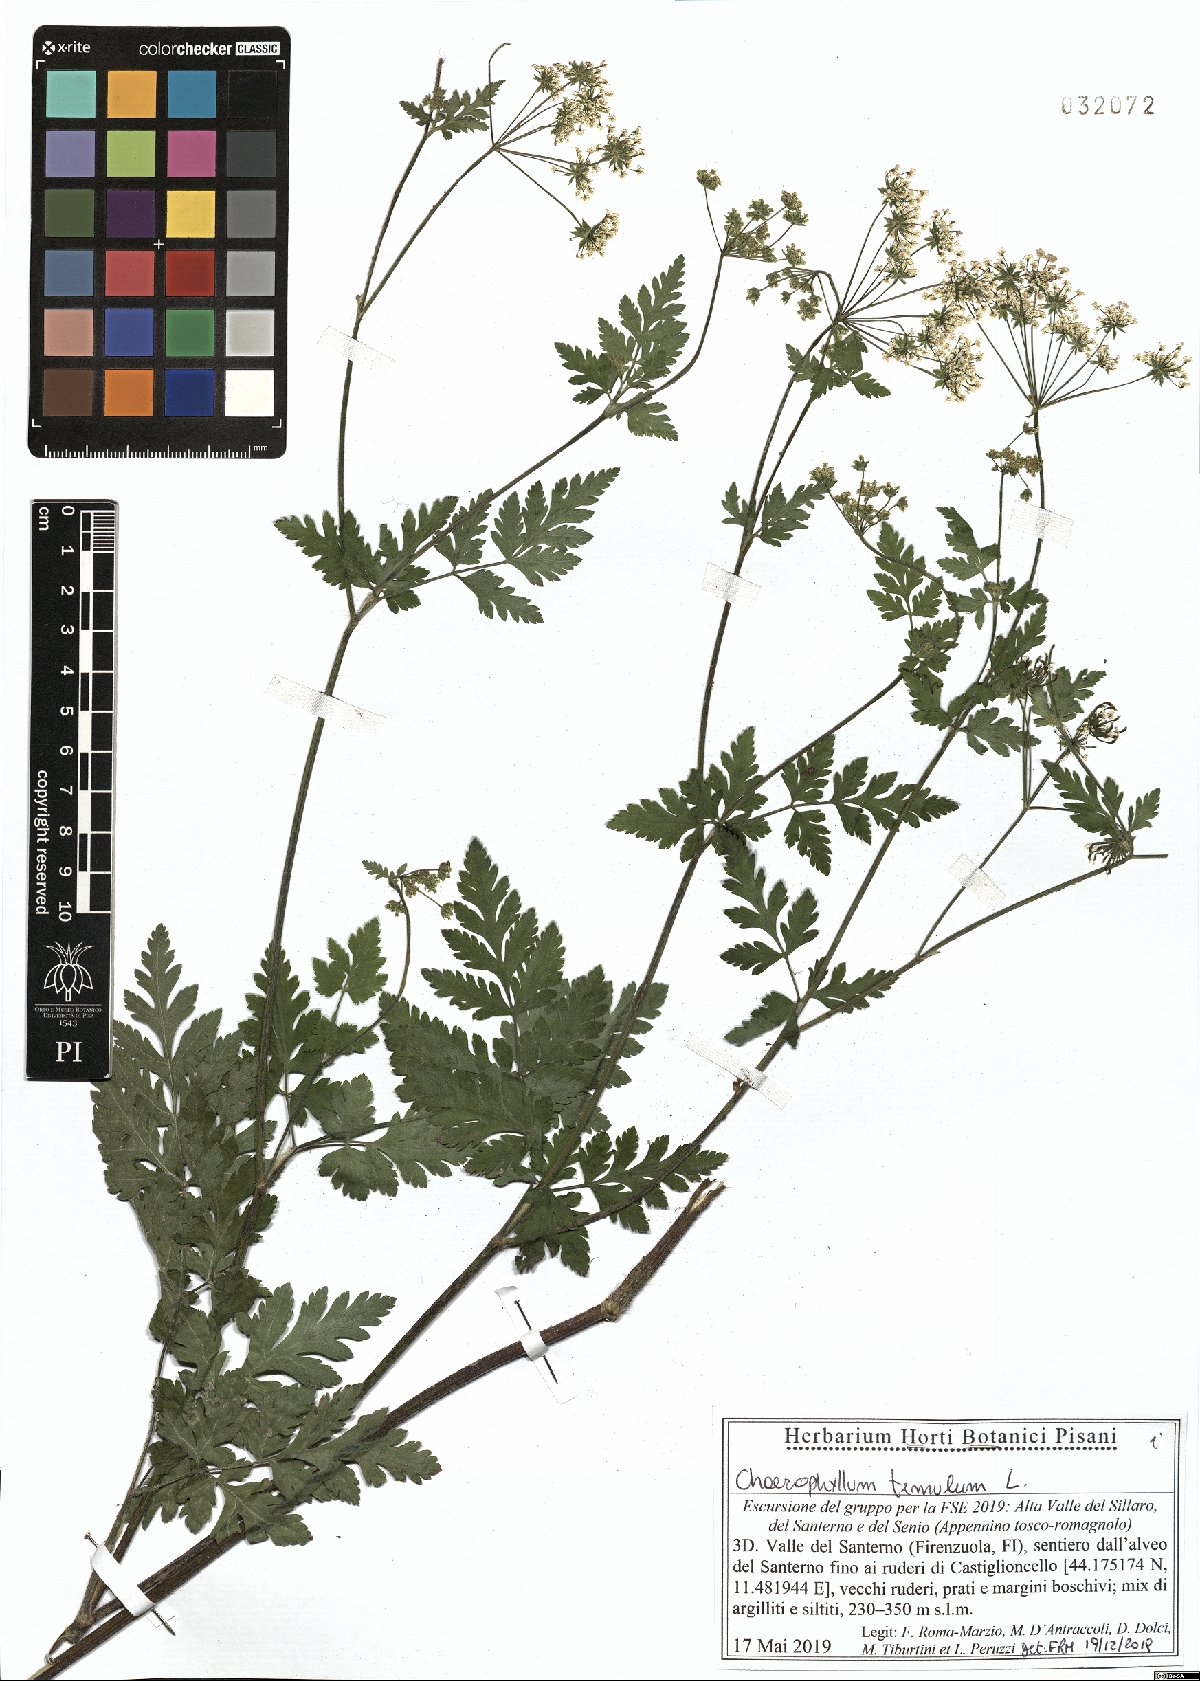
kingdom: Plantae
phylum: Tracheophyta
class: Magnoliopsida
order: Apiales
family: Apiaceae
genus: Chaerophyllum
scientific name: Chaerophyllum temulum
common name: Rough chervil
